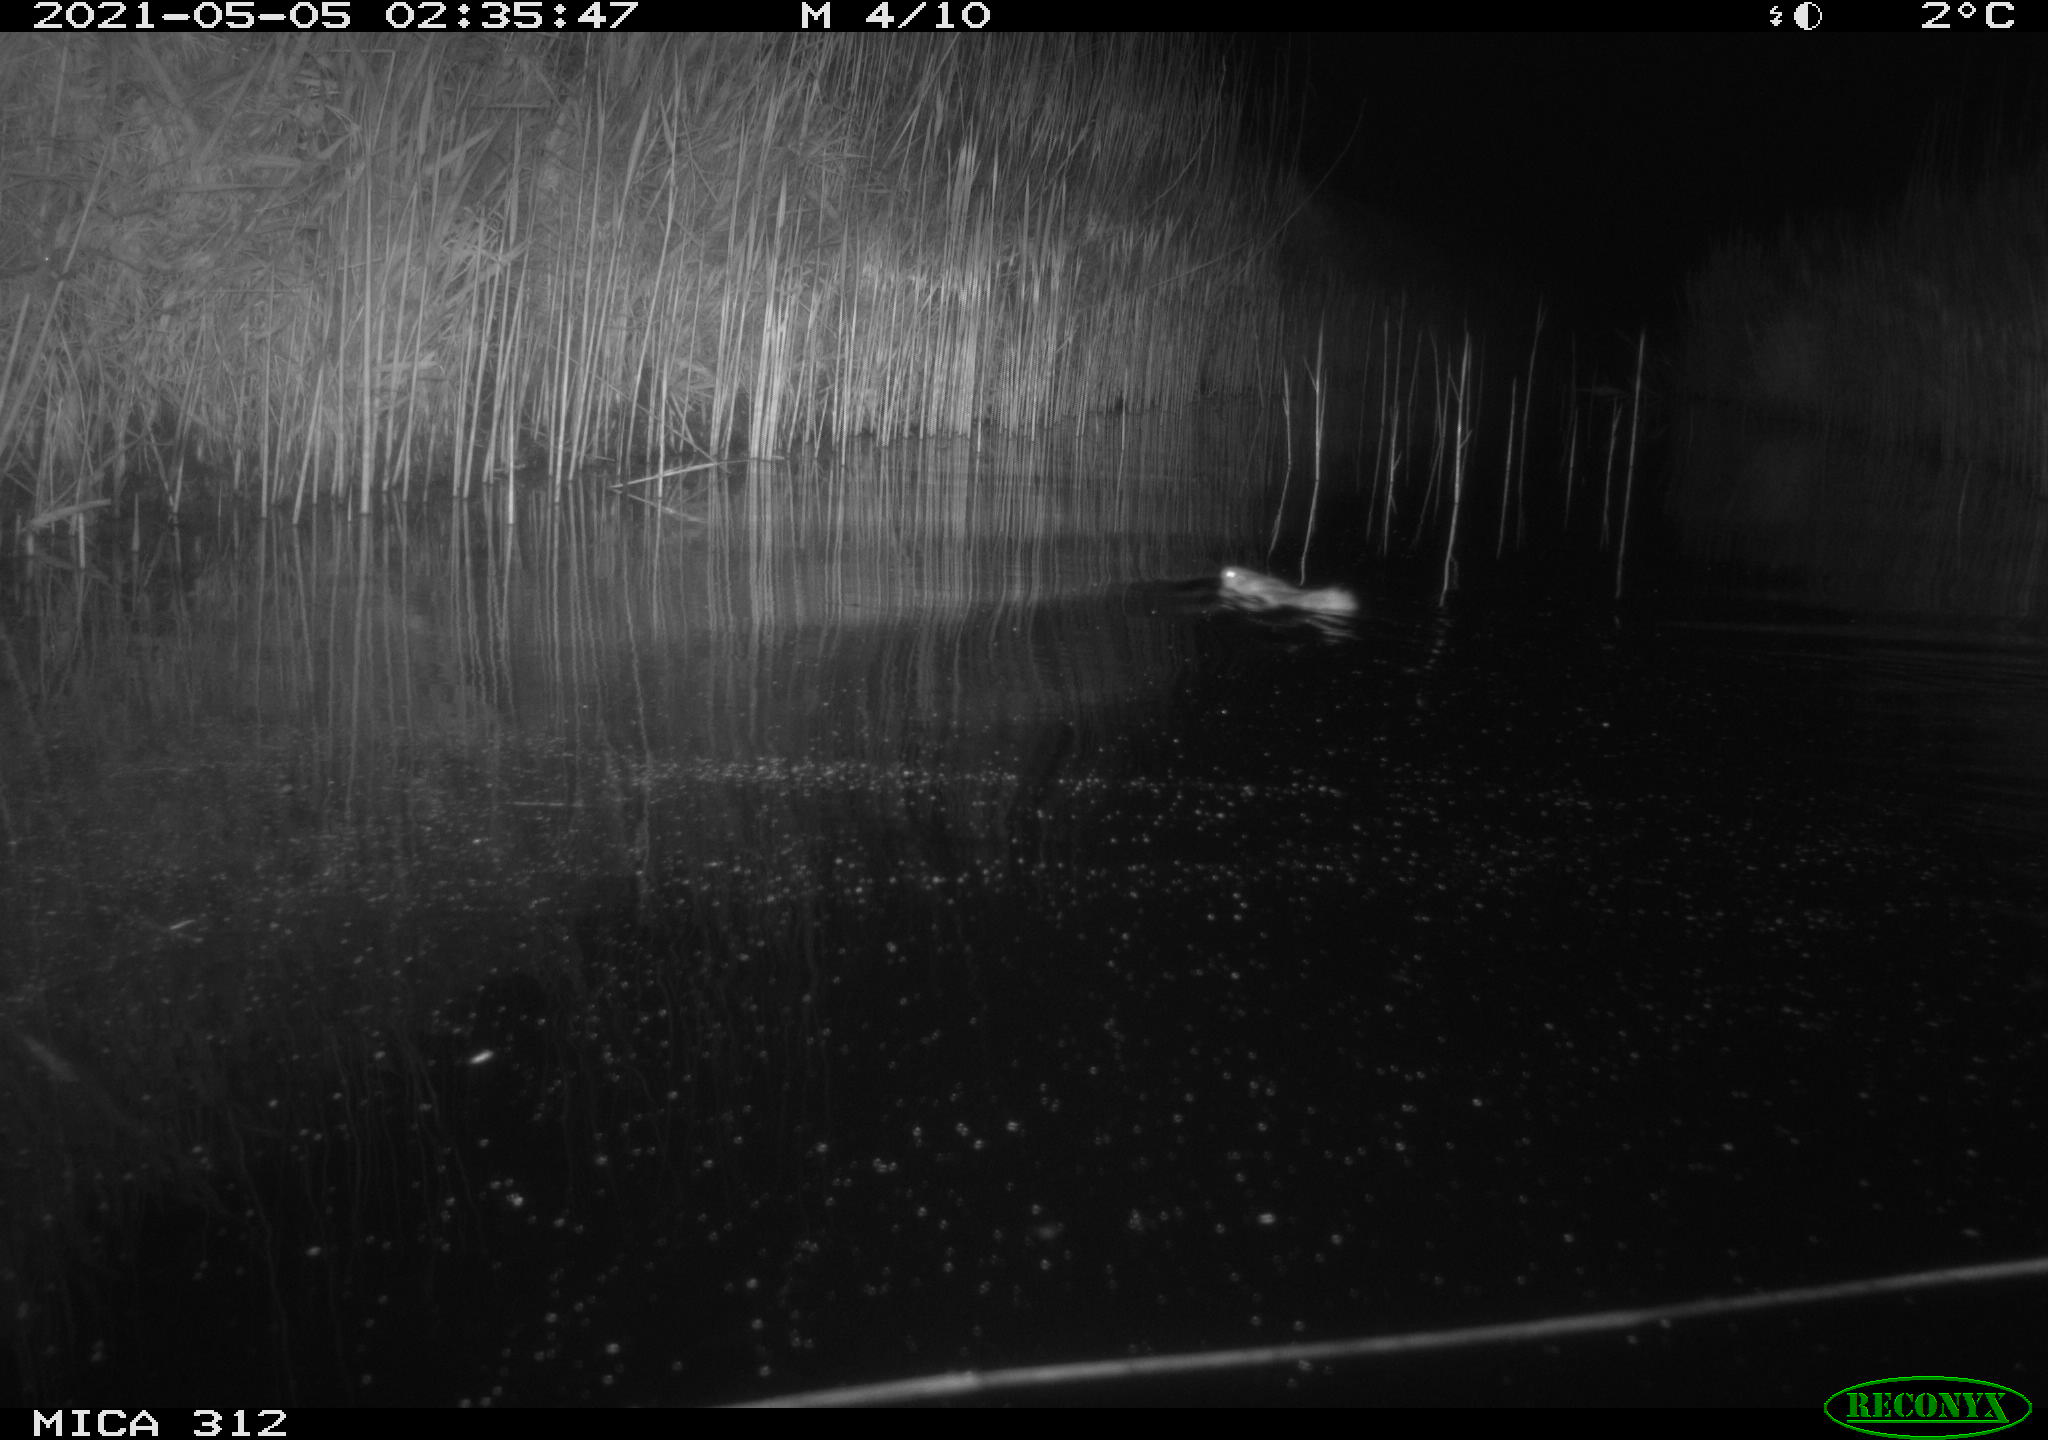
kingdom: Animalia
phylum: Chordata
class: Mammalia
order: Rodentia
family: Muridae
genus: Rattus
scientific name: Rattus norvegicus
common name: Brown rat
